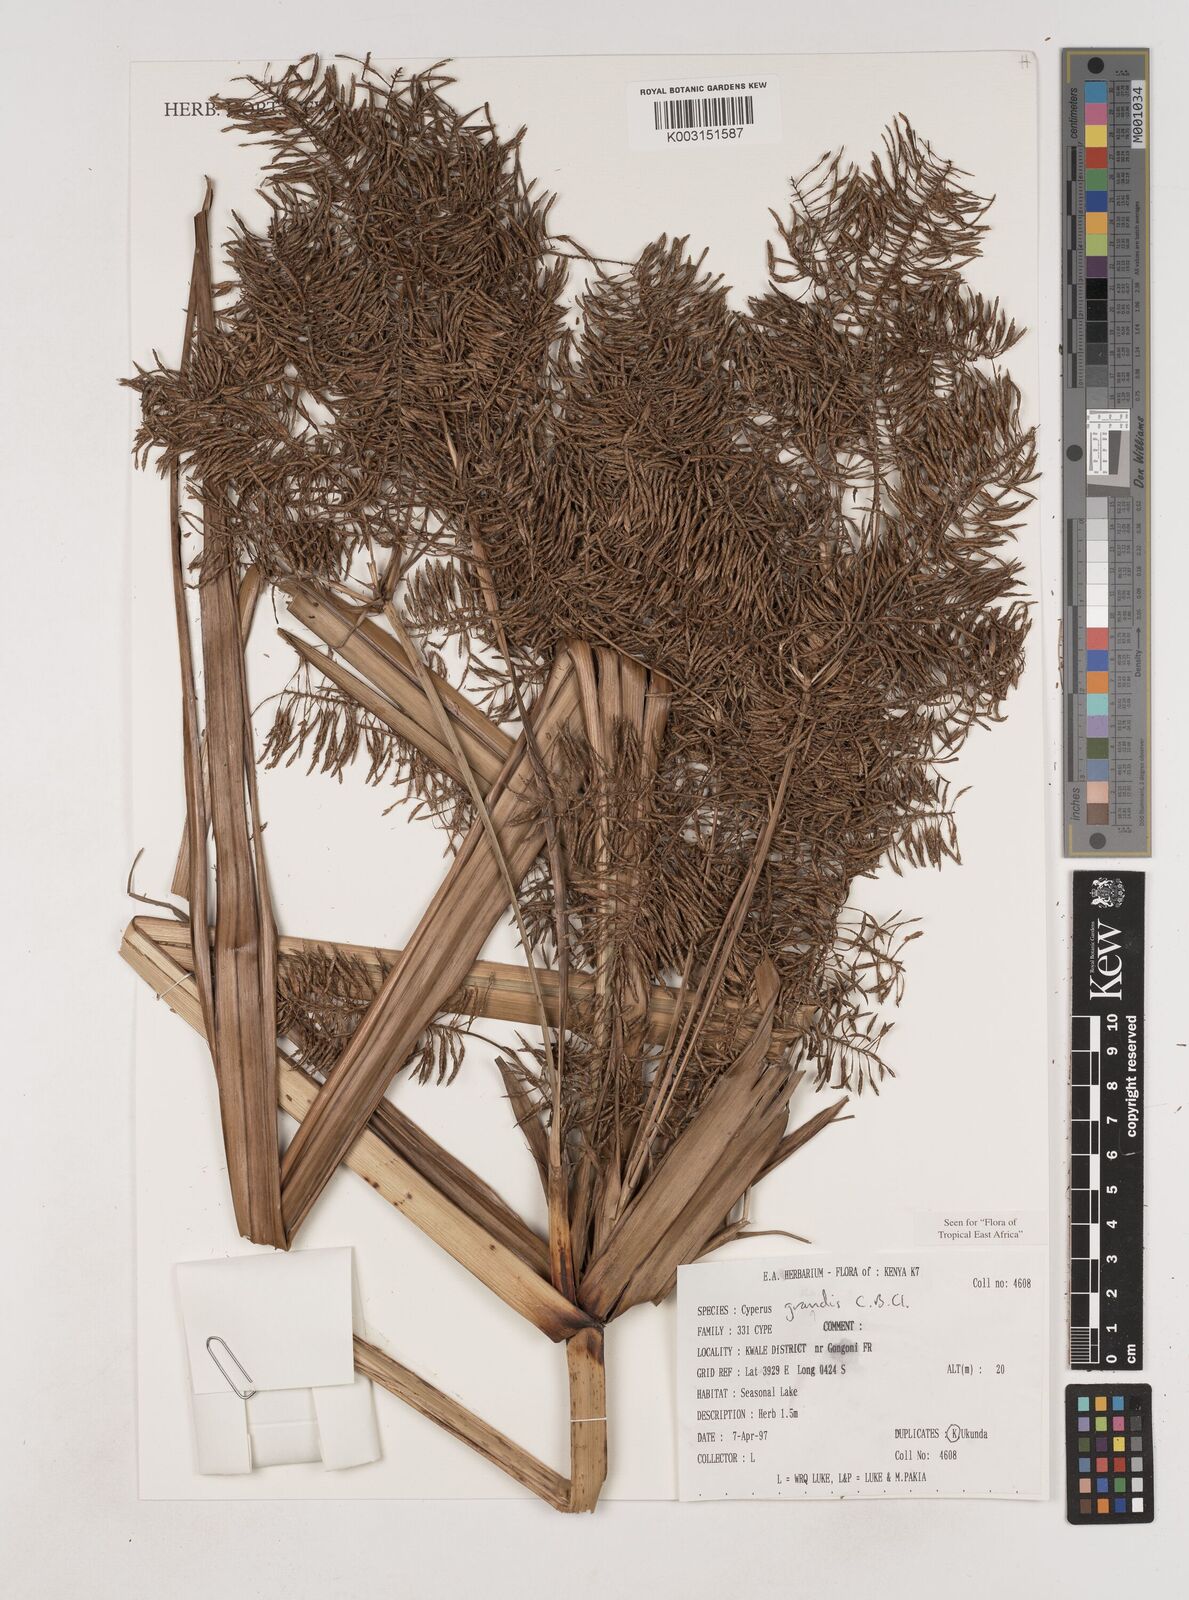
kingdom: Plantae
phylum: Tracheophyta
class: Liliopsida
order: Poales
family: Cyperaceae
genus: Cyperus
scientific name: Cyperus grandis
